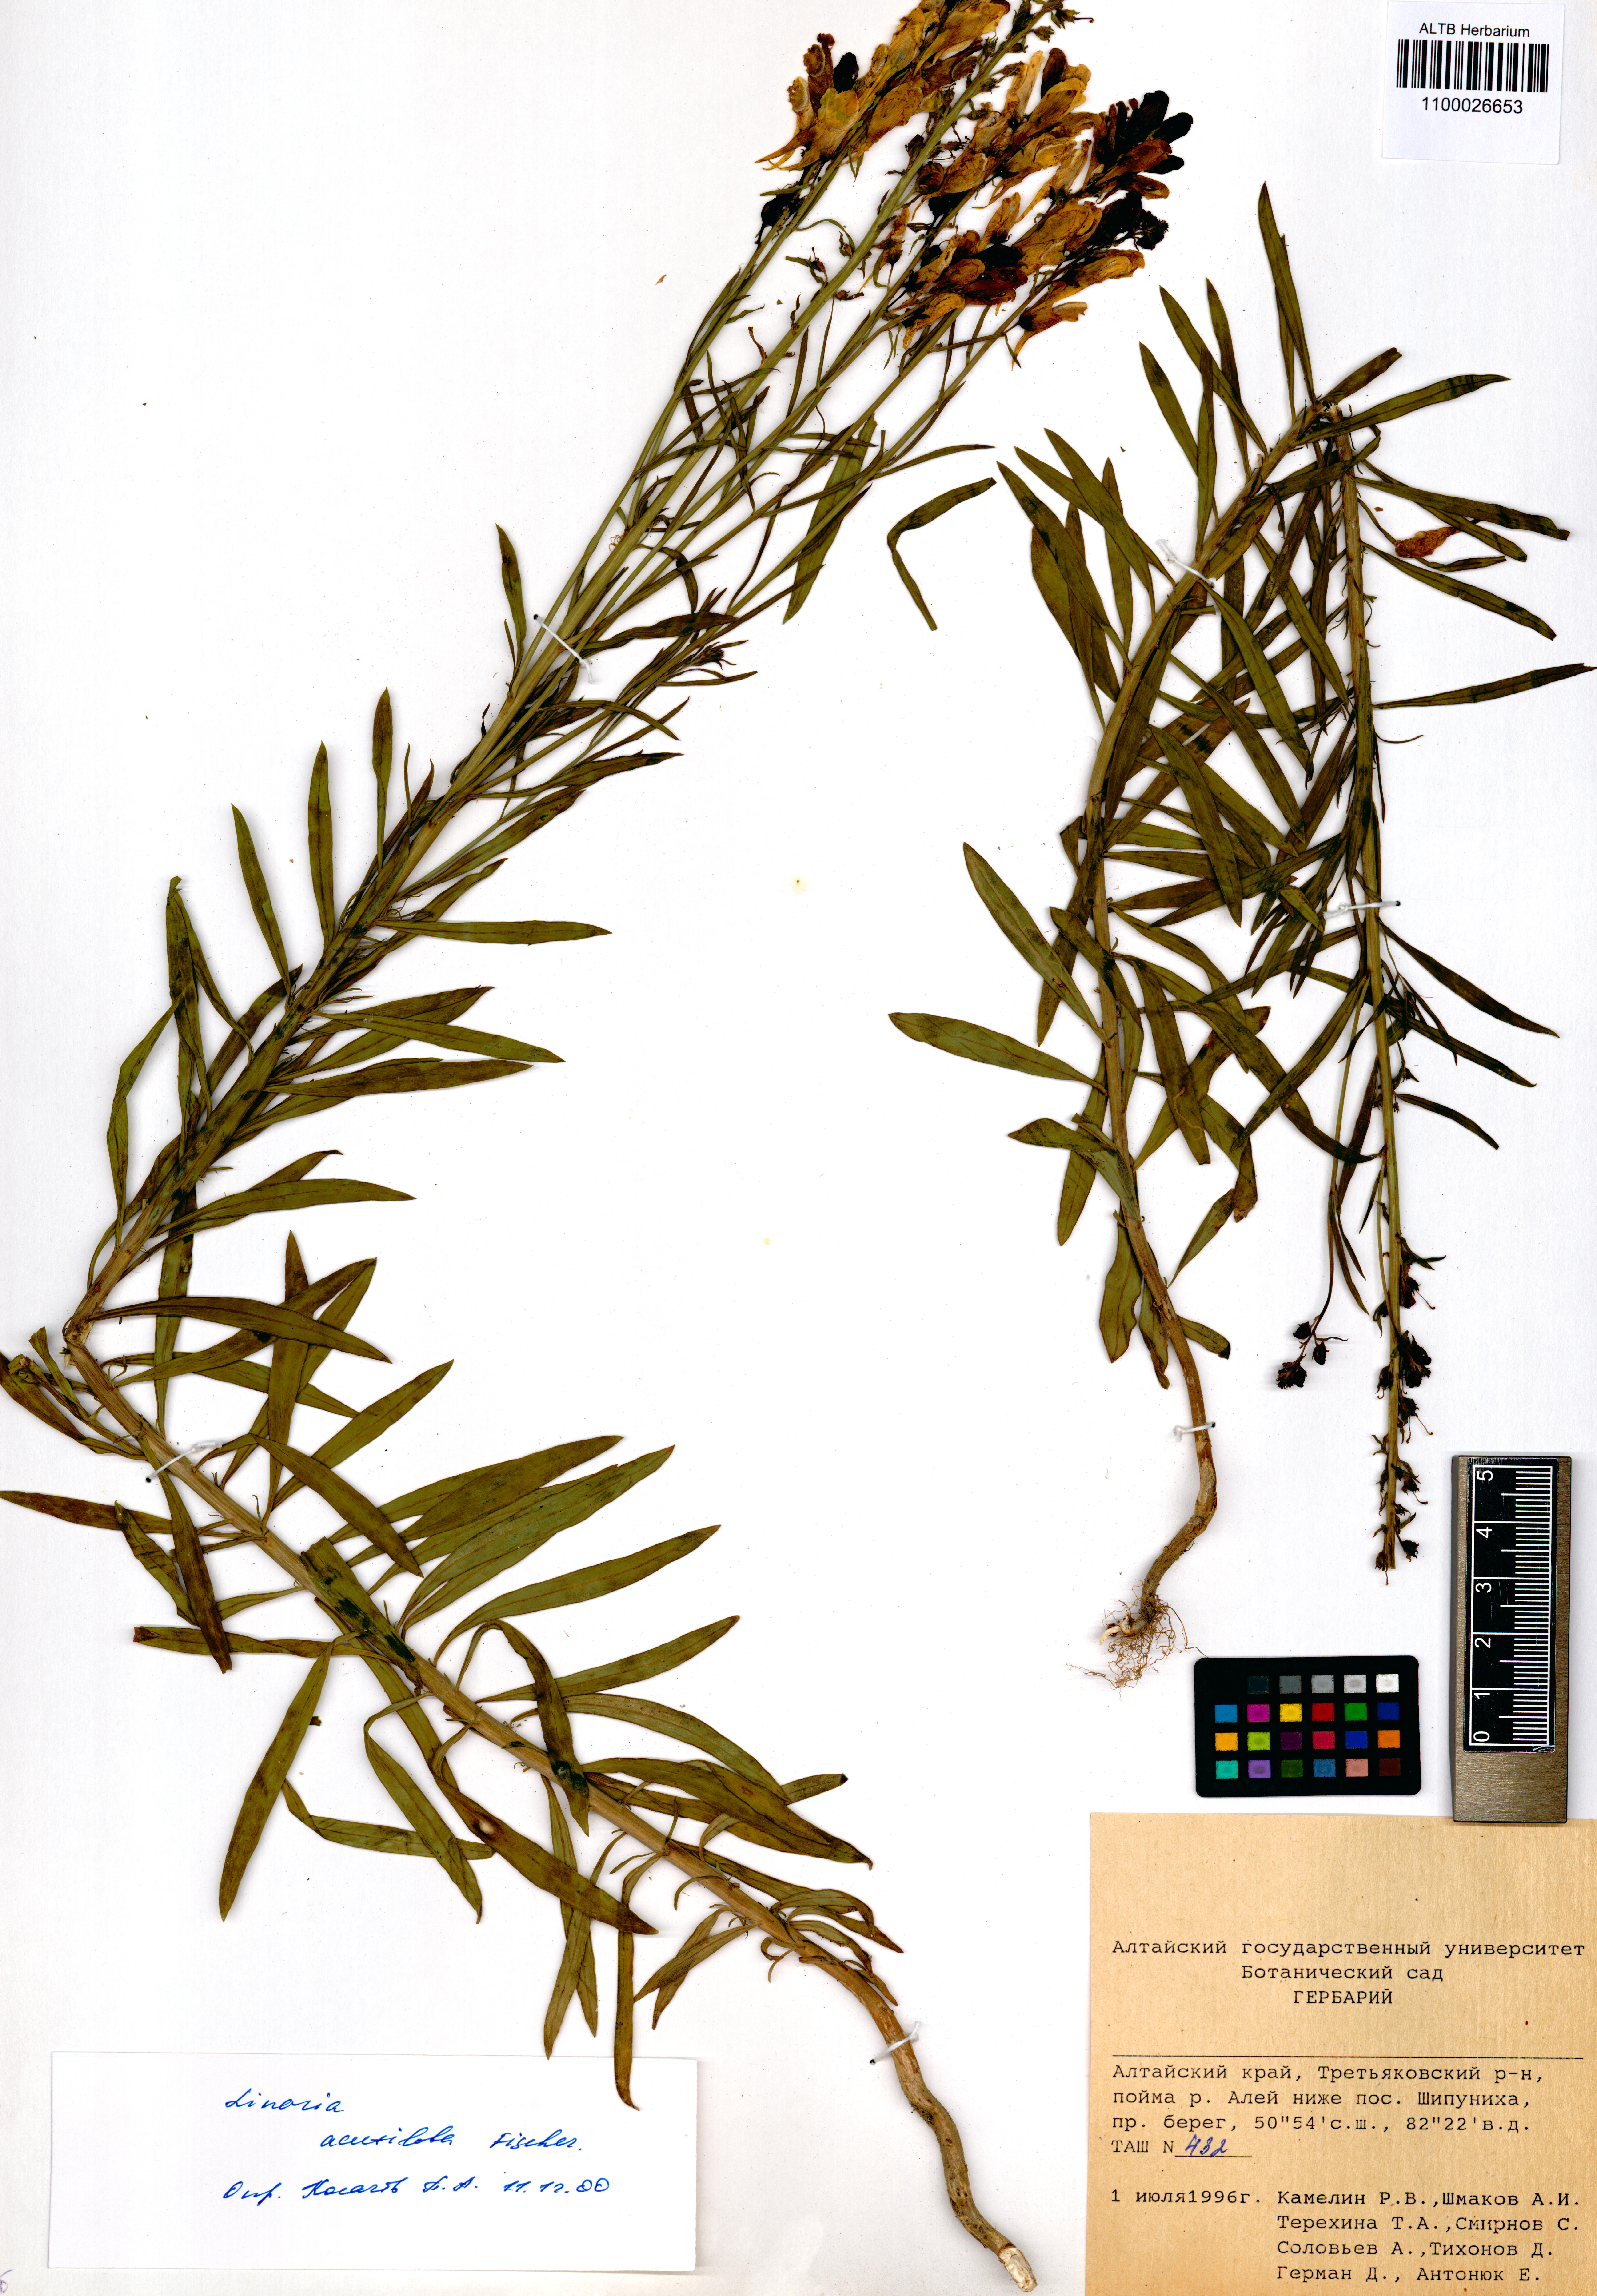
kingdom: Plantae
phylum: Tracheophyta
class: Magnoliopsida
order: Lamiales
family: Plantaginaceae
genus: Linaria
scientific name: Linaria acutiloba
